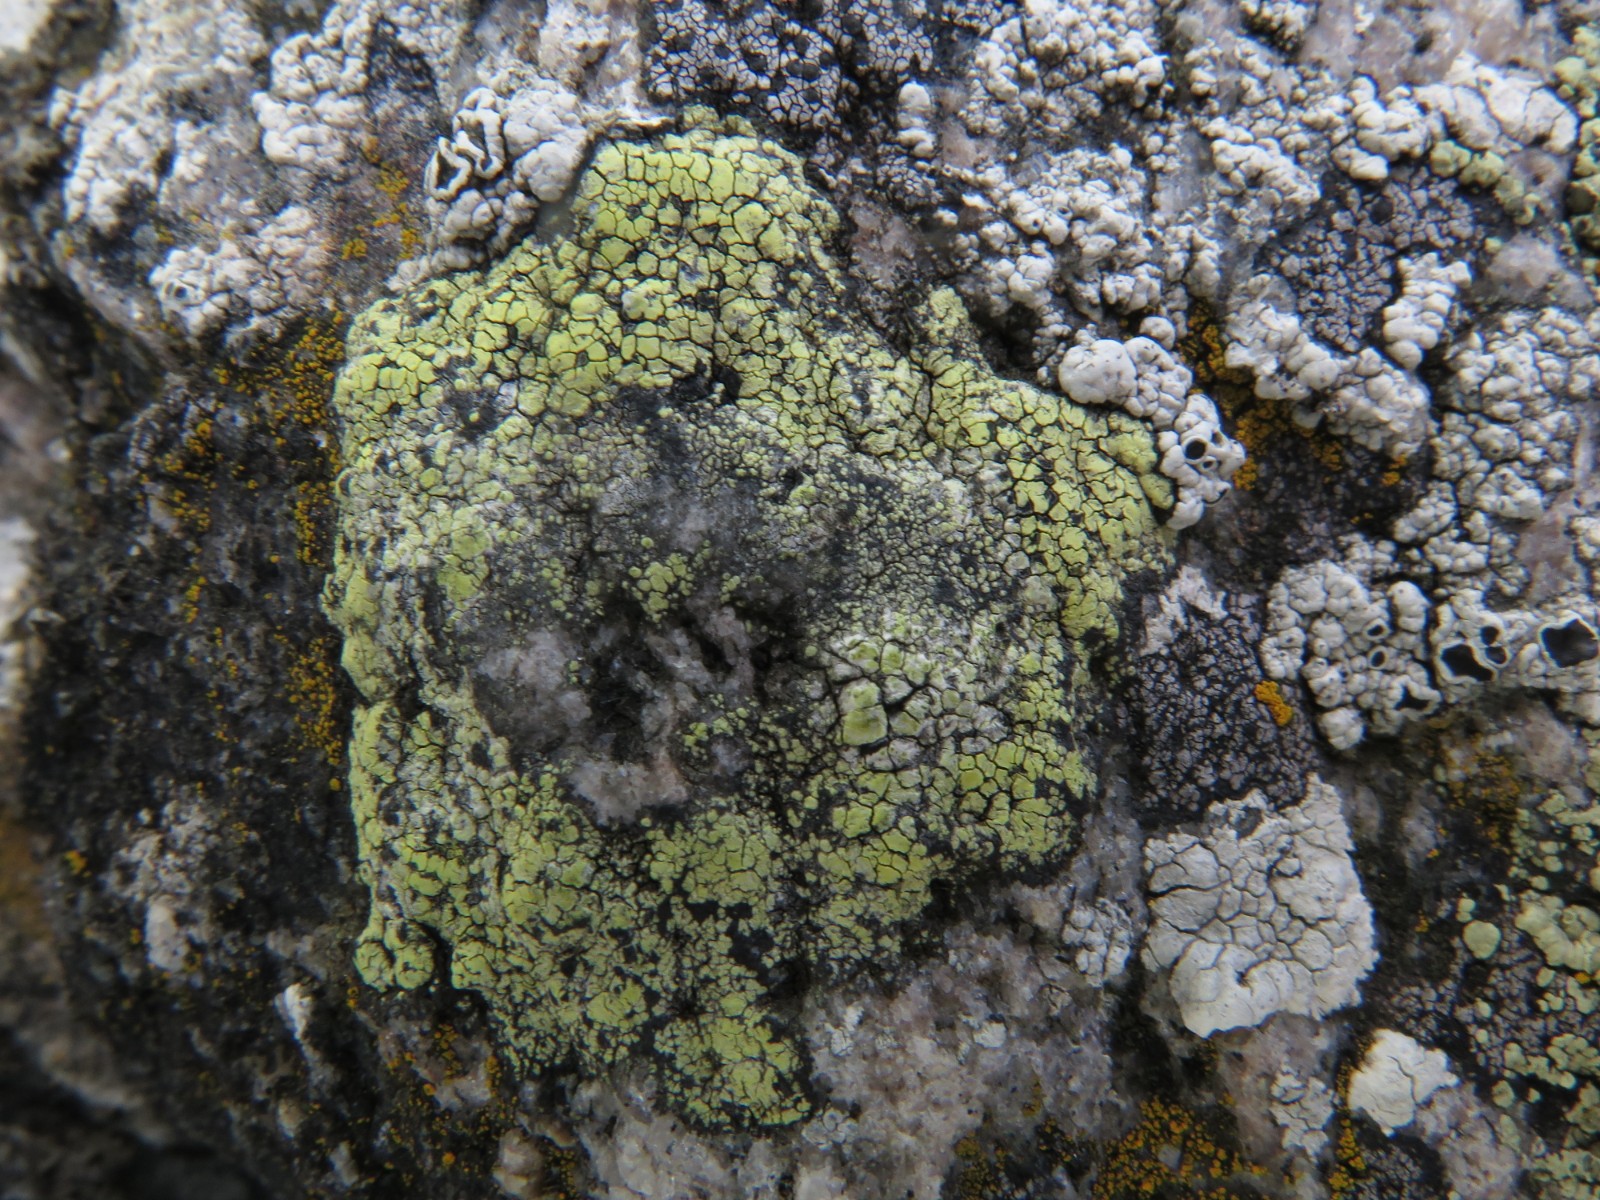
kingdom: Fungi
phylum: Ascomycota
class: Lecanoromycetes
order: Rhizocarpales
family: Rhizocarpaceae
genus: Rhizocarpon
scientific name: Rhizocarpon geographicum
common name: gulgrøn landkortlav
